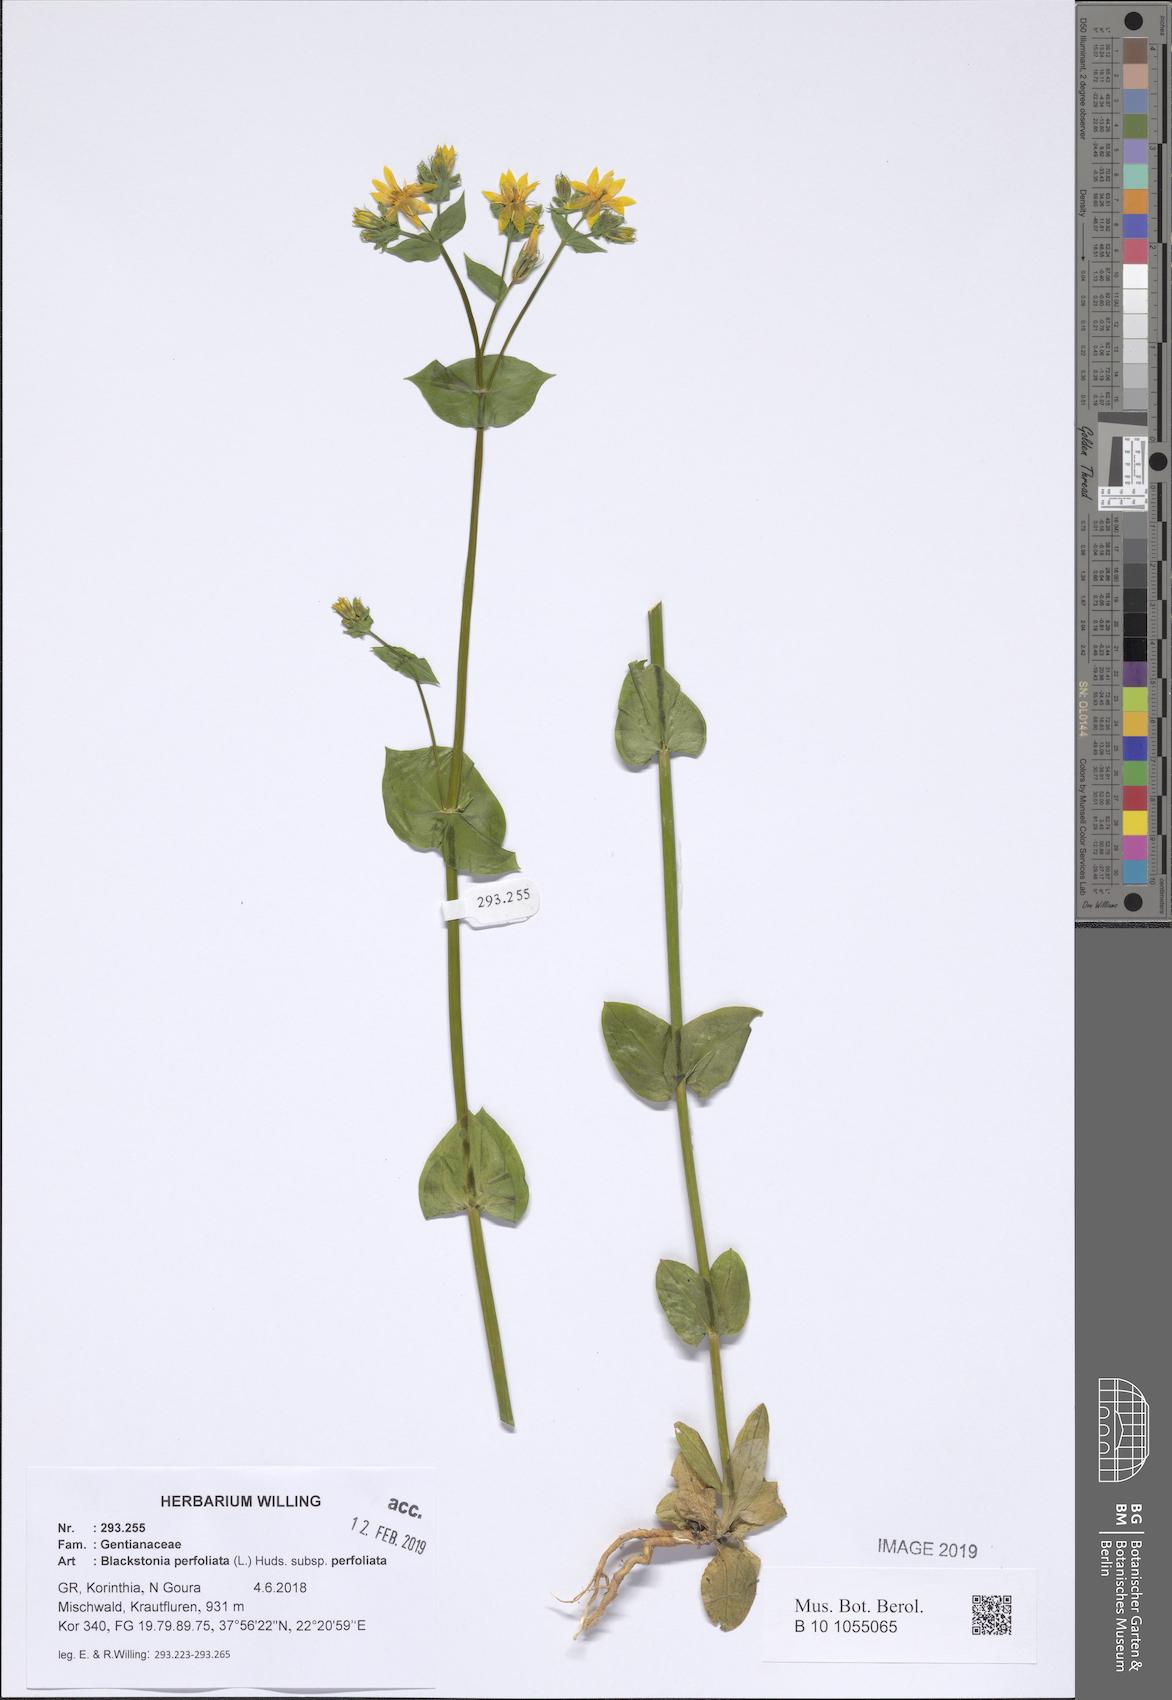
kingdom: Plantae
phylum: Tracheophyta
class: Magnoliopsida
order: Gentianales
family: Gentianaceae
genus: Blackstonia
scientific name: Blackstonia perfoliata
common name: Yellow-wort
